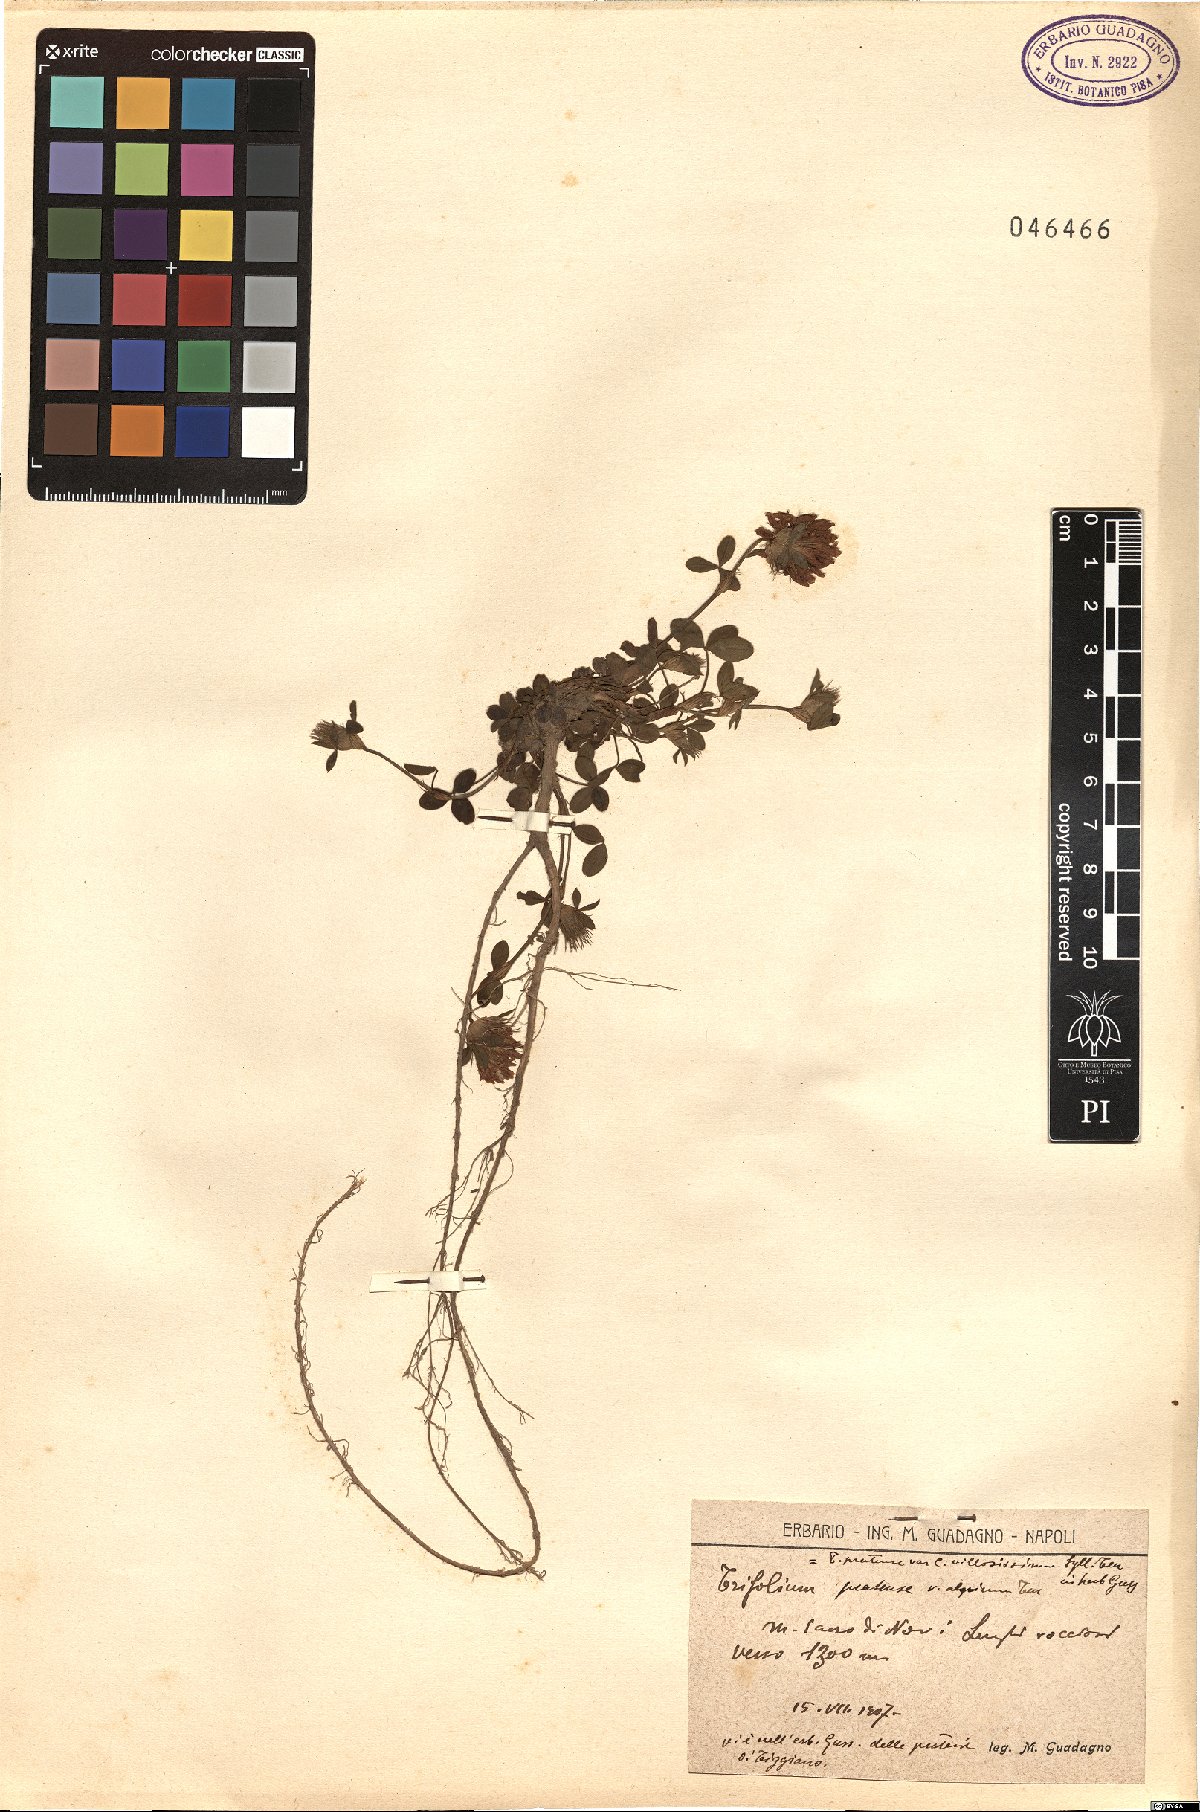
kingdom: Plantae
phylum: Tracheophyta
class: Magnoliopsida
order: Fabales
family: Fabaceae
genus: Trifolium
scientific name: Trifolium pratense
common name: Red clover
